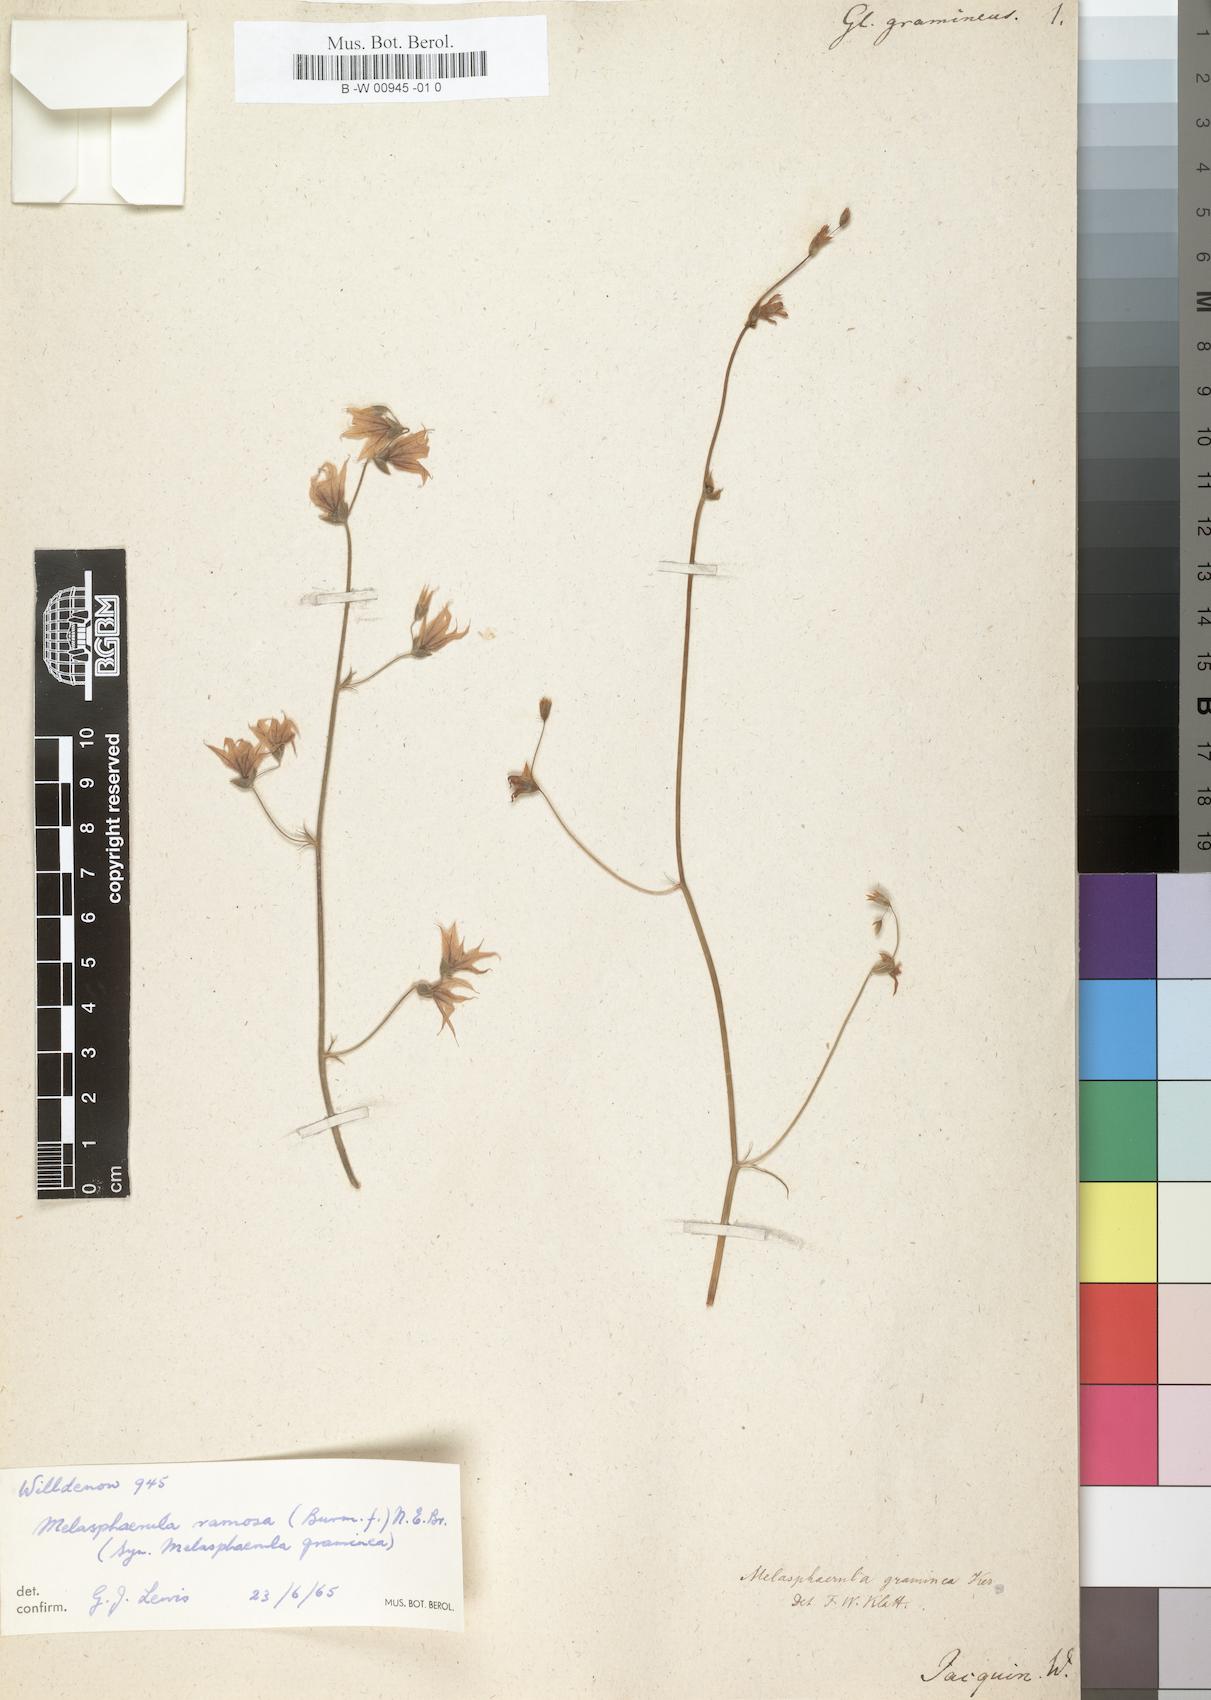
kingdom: Plantae
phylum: Tracheophyta
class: Liliopsida
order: Asparagales
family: Iridaceae
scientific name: Iridaceae
